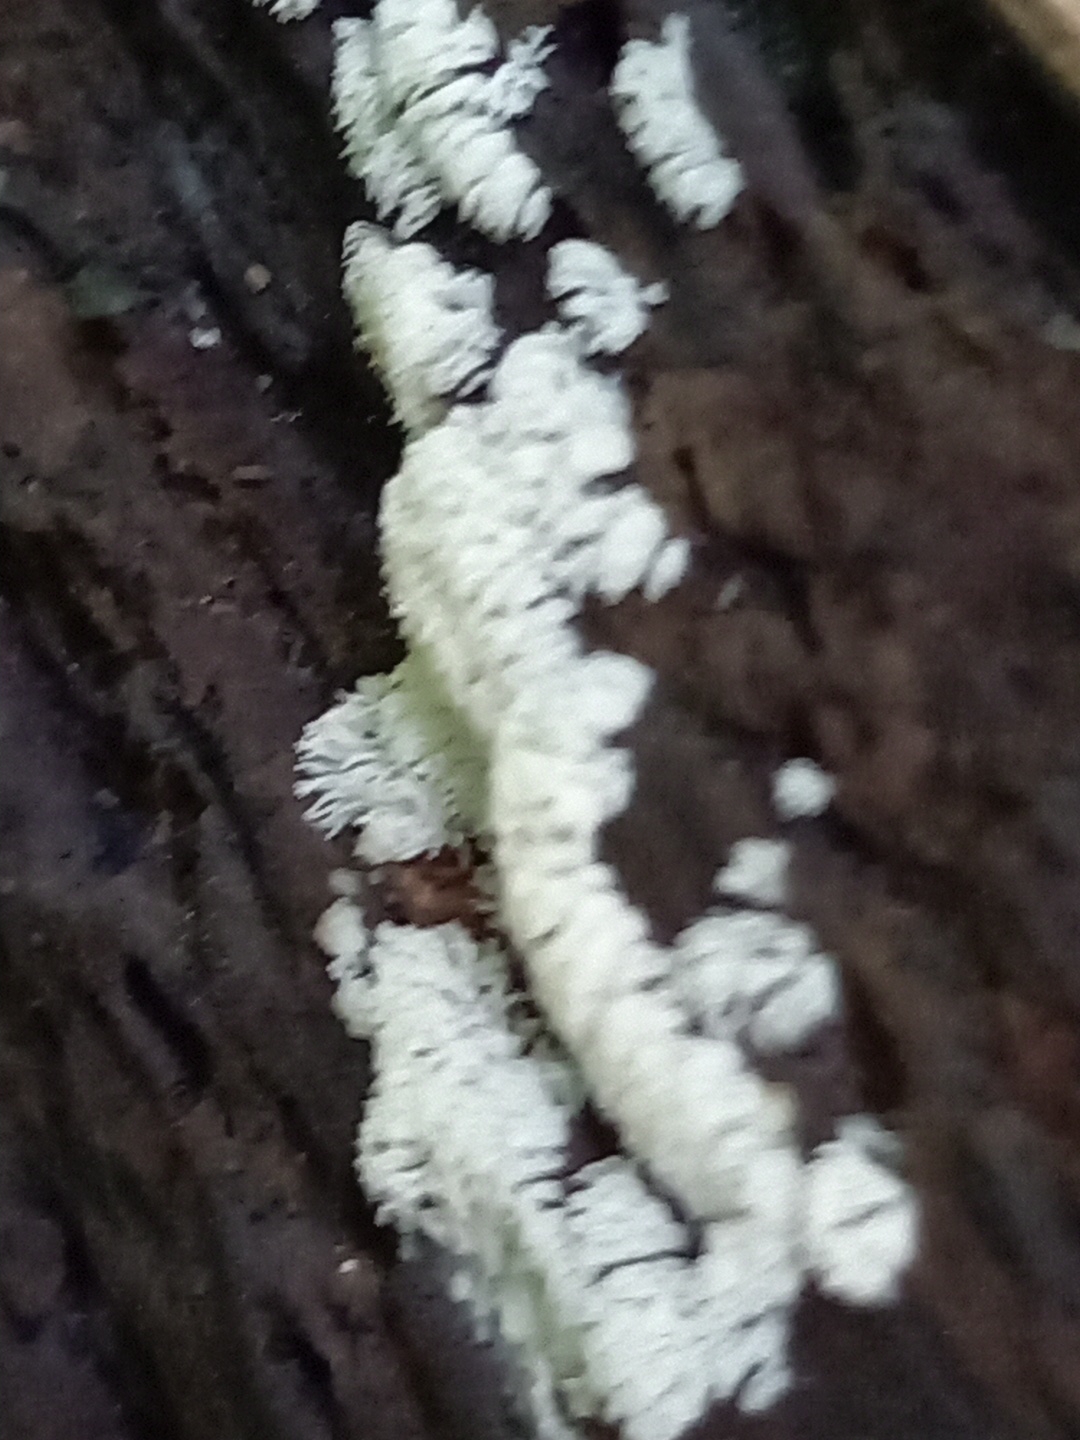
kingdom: Protozoa
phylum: Mycetozoa
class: Protosteliomycetes
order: Ceratiomyxales
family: Ceratiomyxaceae
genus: Ceratiomyxa
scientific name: Ceratiomyxa fruticulosa
